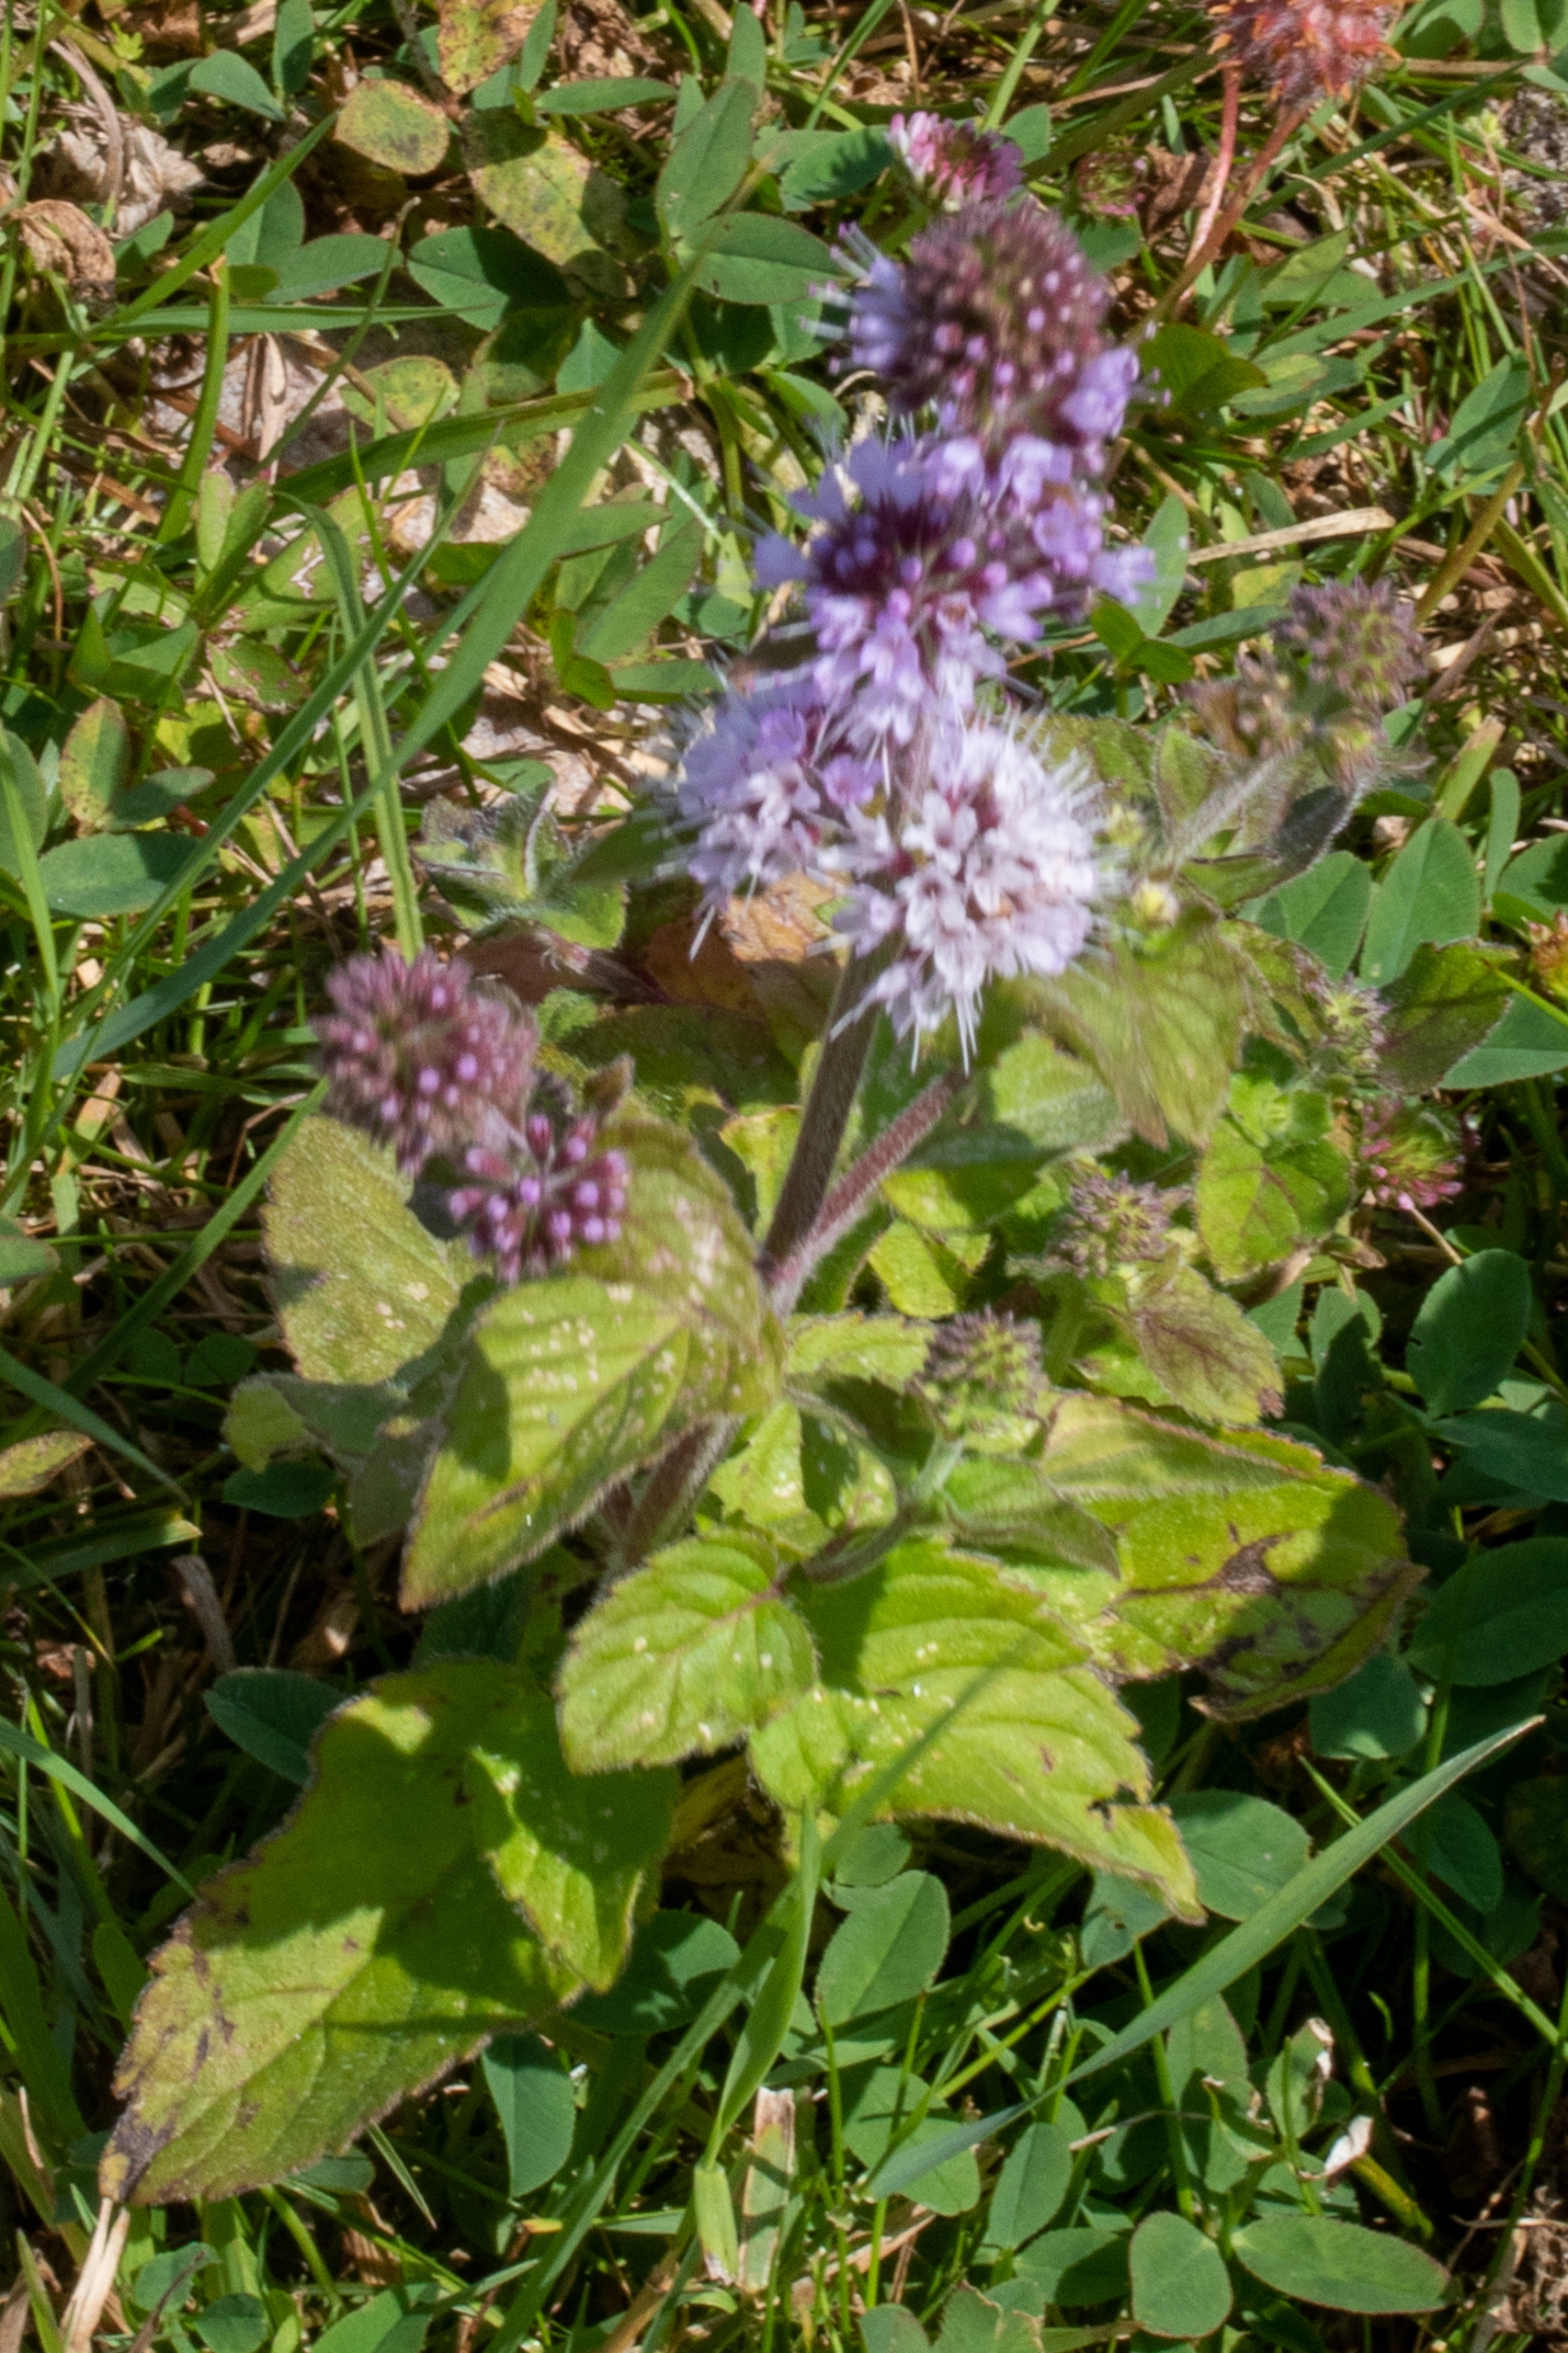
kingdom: Plantae
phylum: Tracheophyta
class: Magnoliopsida
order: Lamiales
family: Lamiaceae
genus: Mentha
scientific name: Mentha aquatica
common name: Vand-mynte
